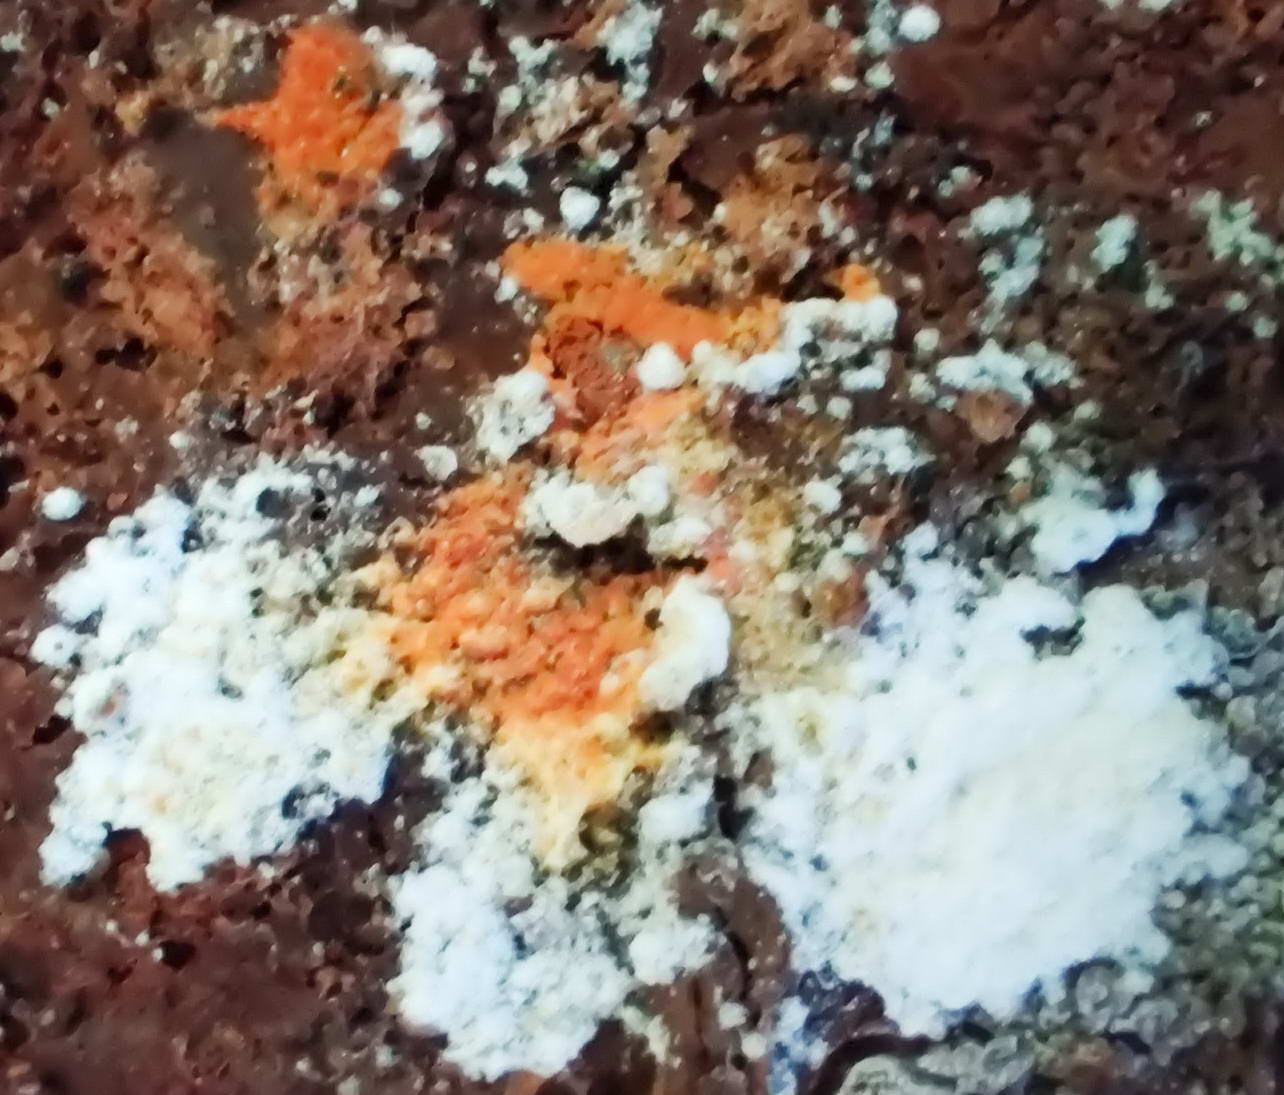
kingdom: Fungi
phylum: Ascomycota
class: Sordariomycetes
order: Hypocreales
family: Hypocreaceae
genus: Hypomyces
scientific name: Hypomyces aurantius
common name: almindelig snylteskorpe
